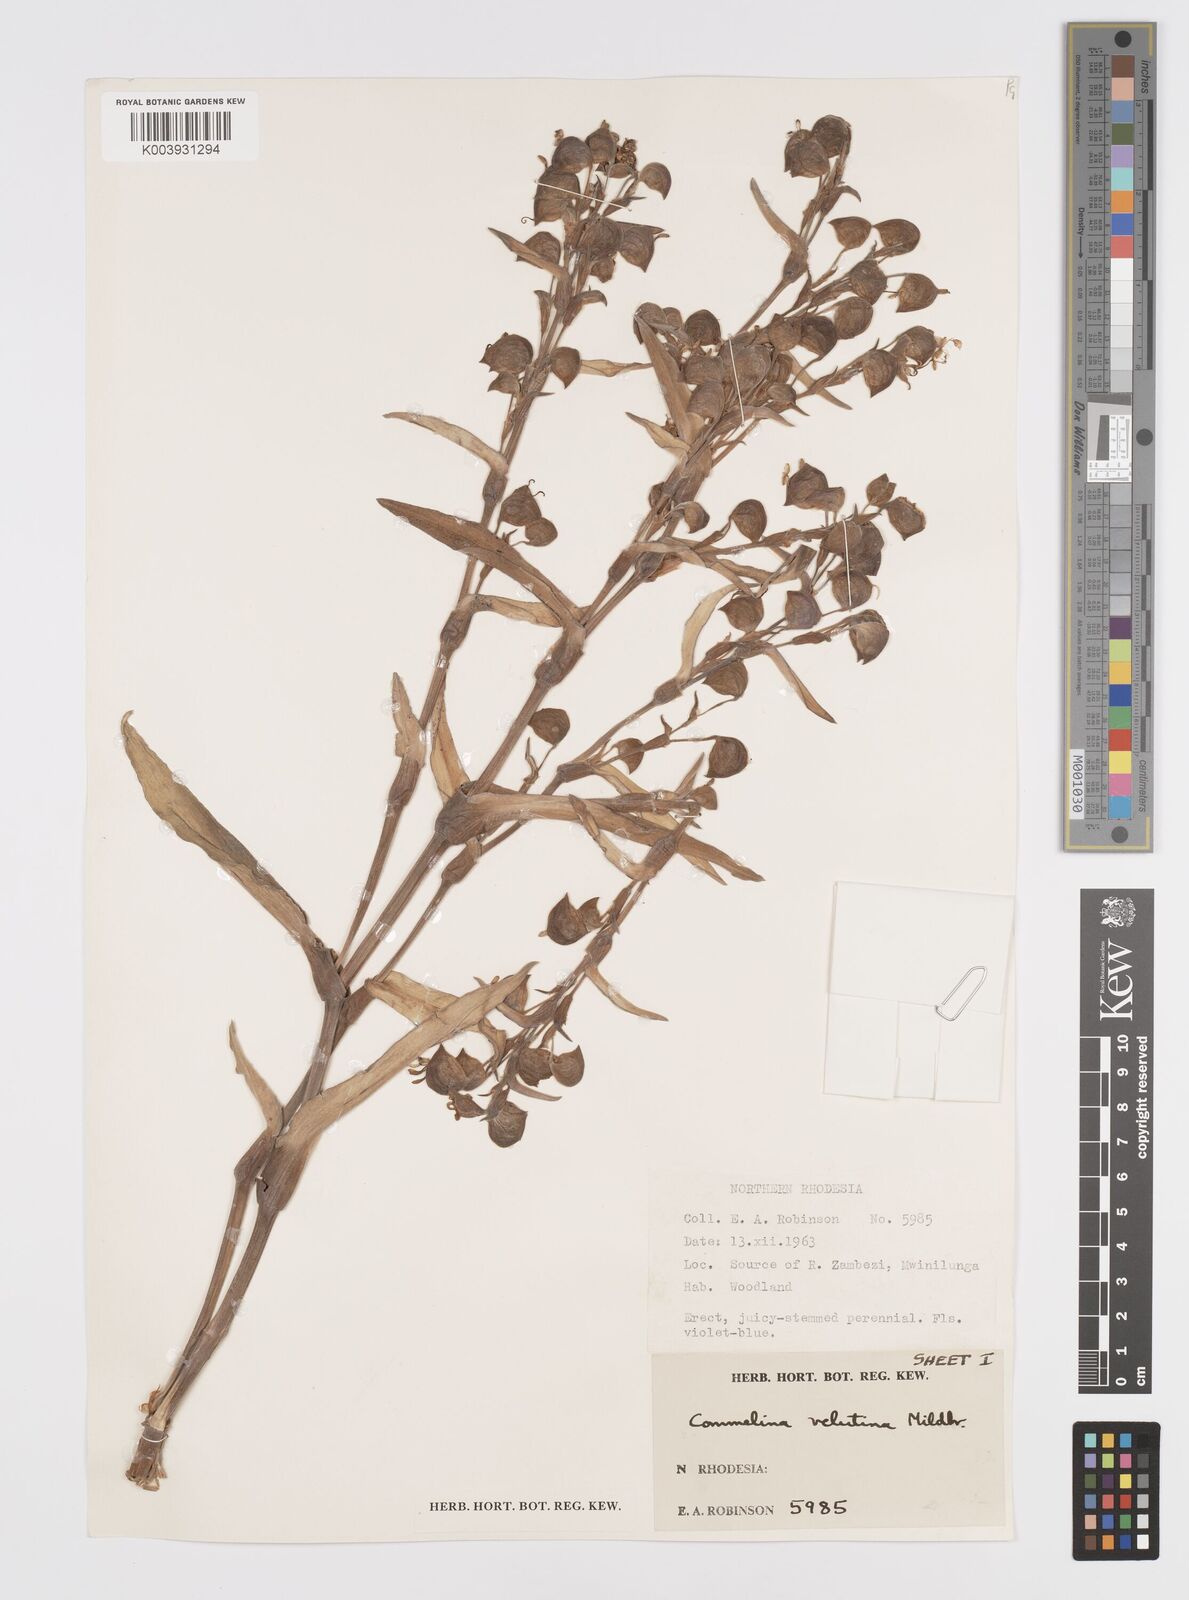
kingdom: Plantae
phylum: Tracheophyta
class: Liliopsida
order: Commelinales
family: Commelinaceae
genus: Commelina
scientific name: Commelina velutina
